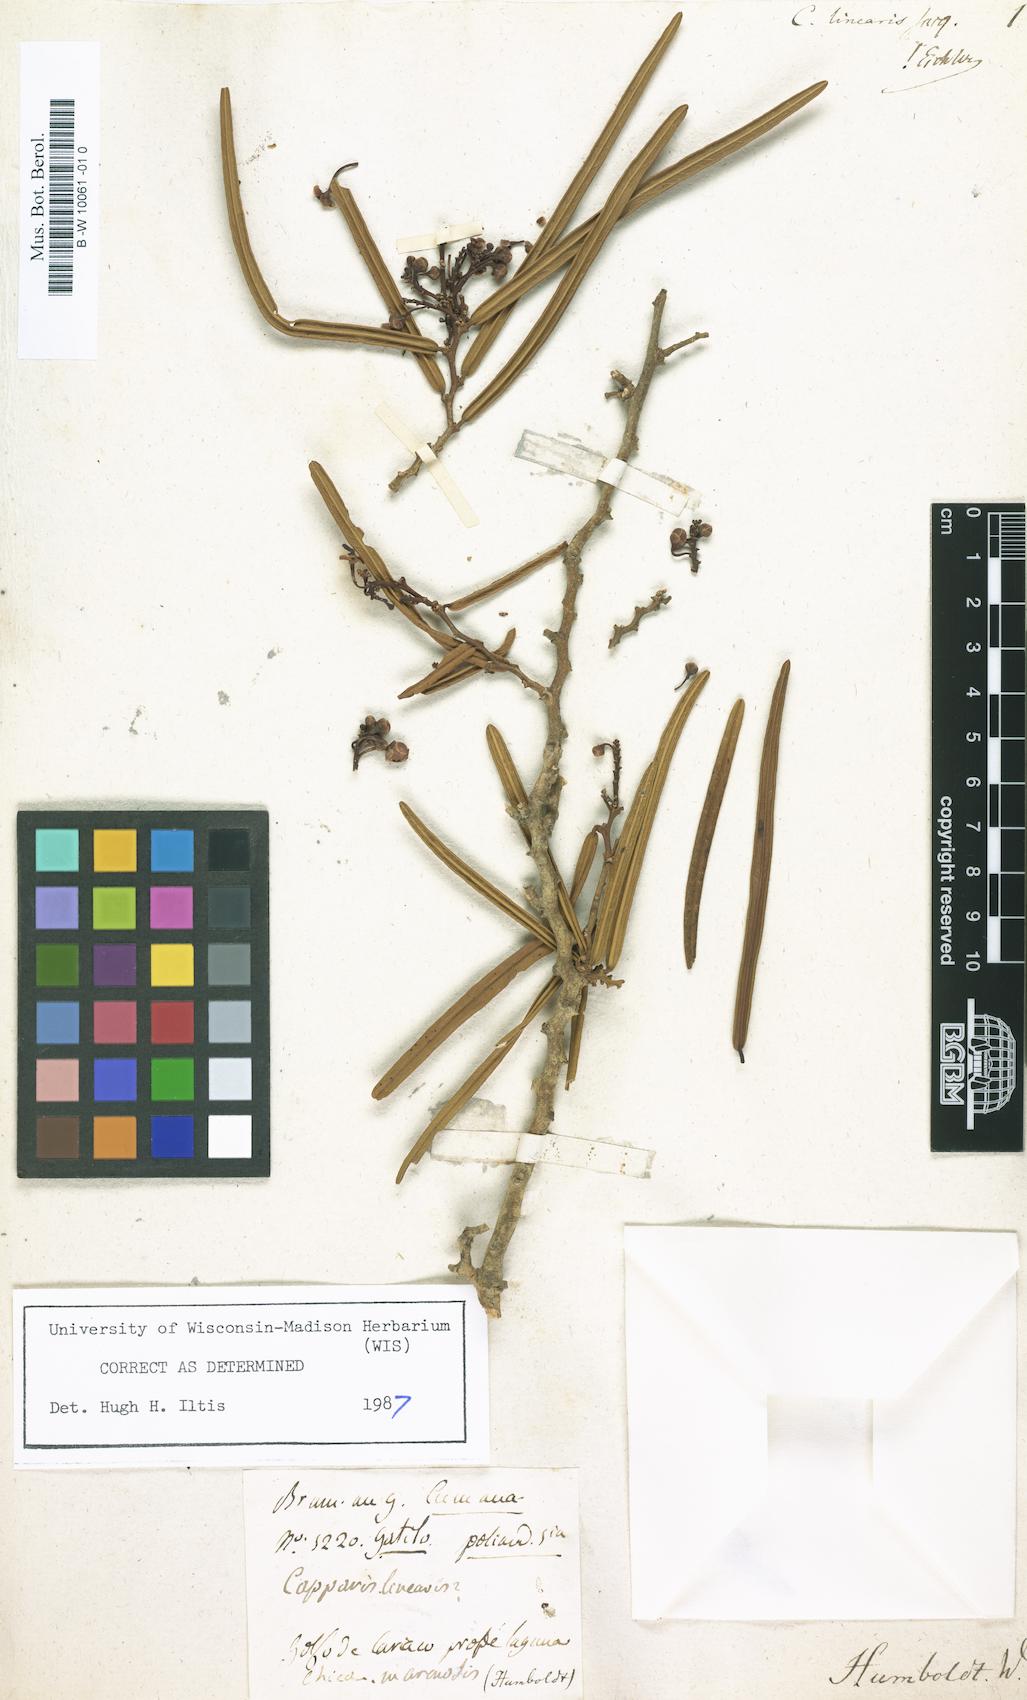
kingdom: Plantae
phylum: Tracheophyta
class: Magnoliopsida
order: Brassicales
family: Capparaceae
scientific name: Capparaceae
